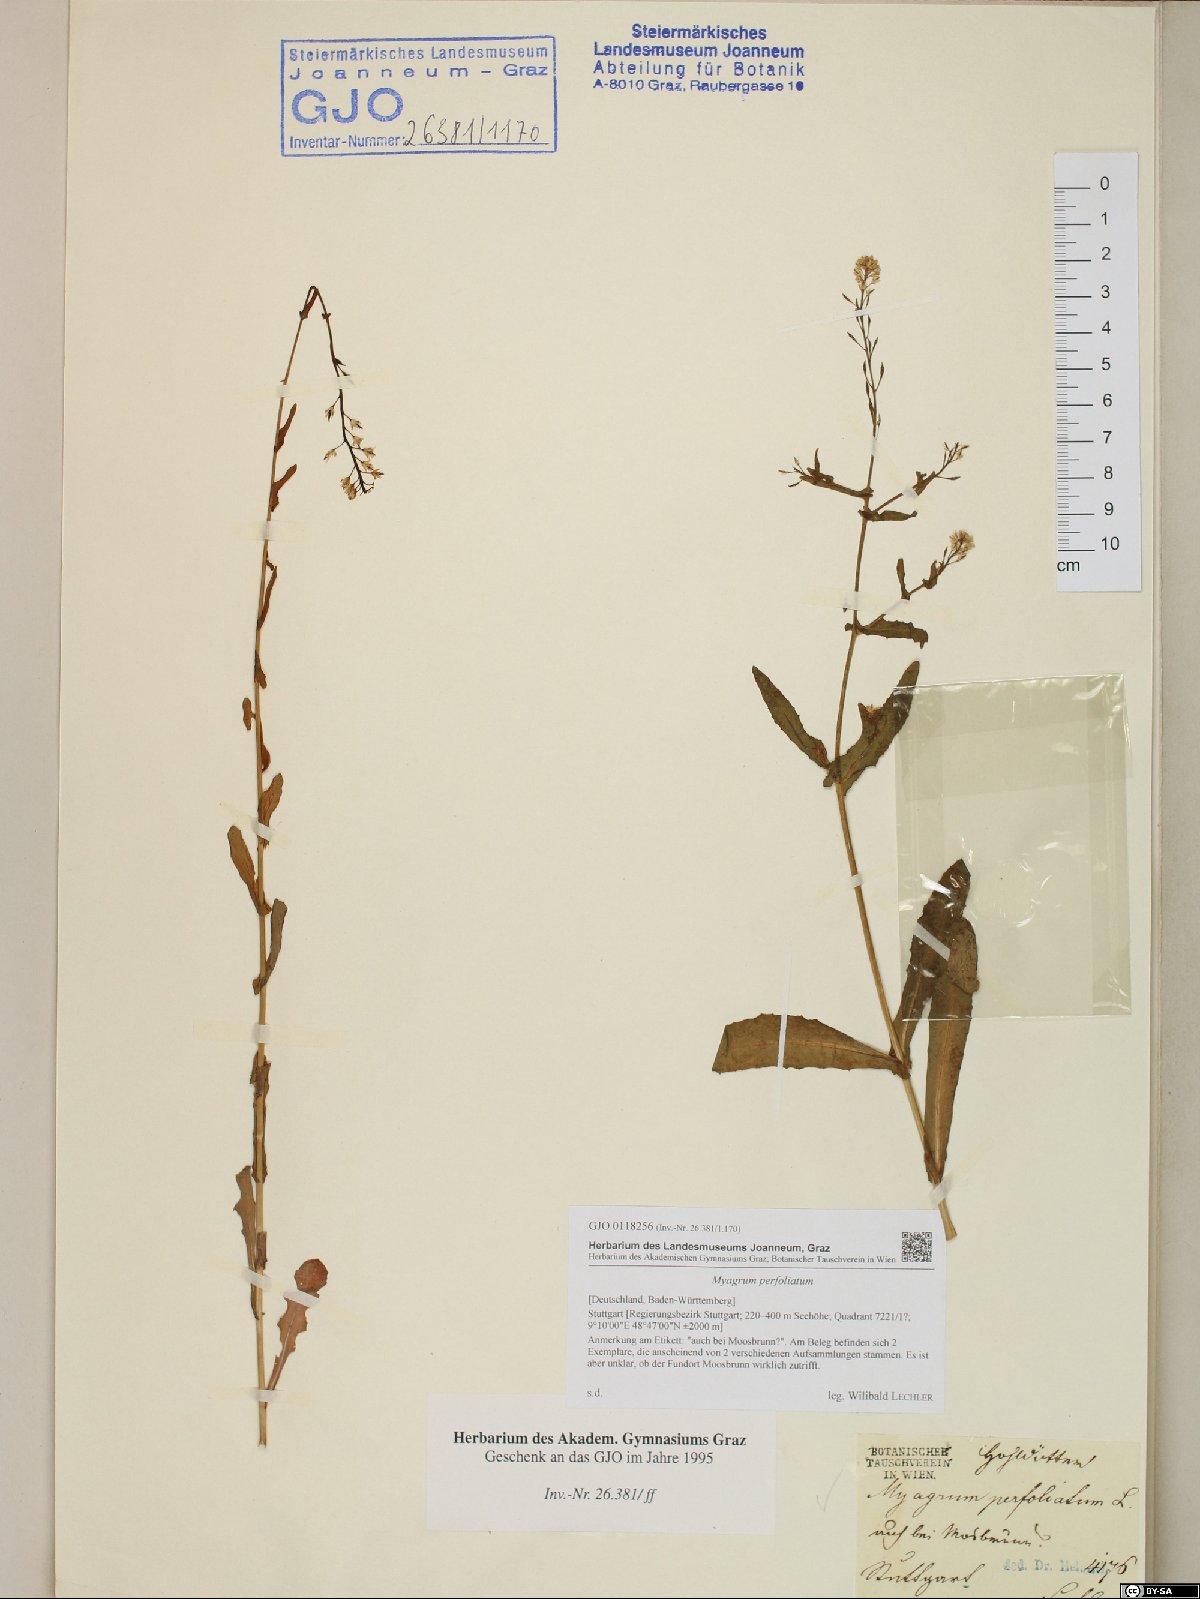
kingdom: Plantae
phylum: Tracheophyta
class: Magnoliopsida
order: Brassicales
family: Brassicaceae
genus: Myagrum
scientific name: Myagrum perfoliatum
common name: Mitre cress
